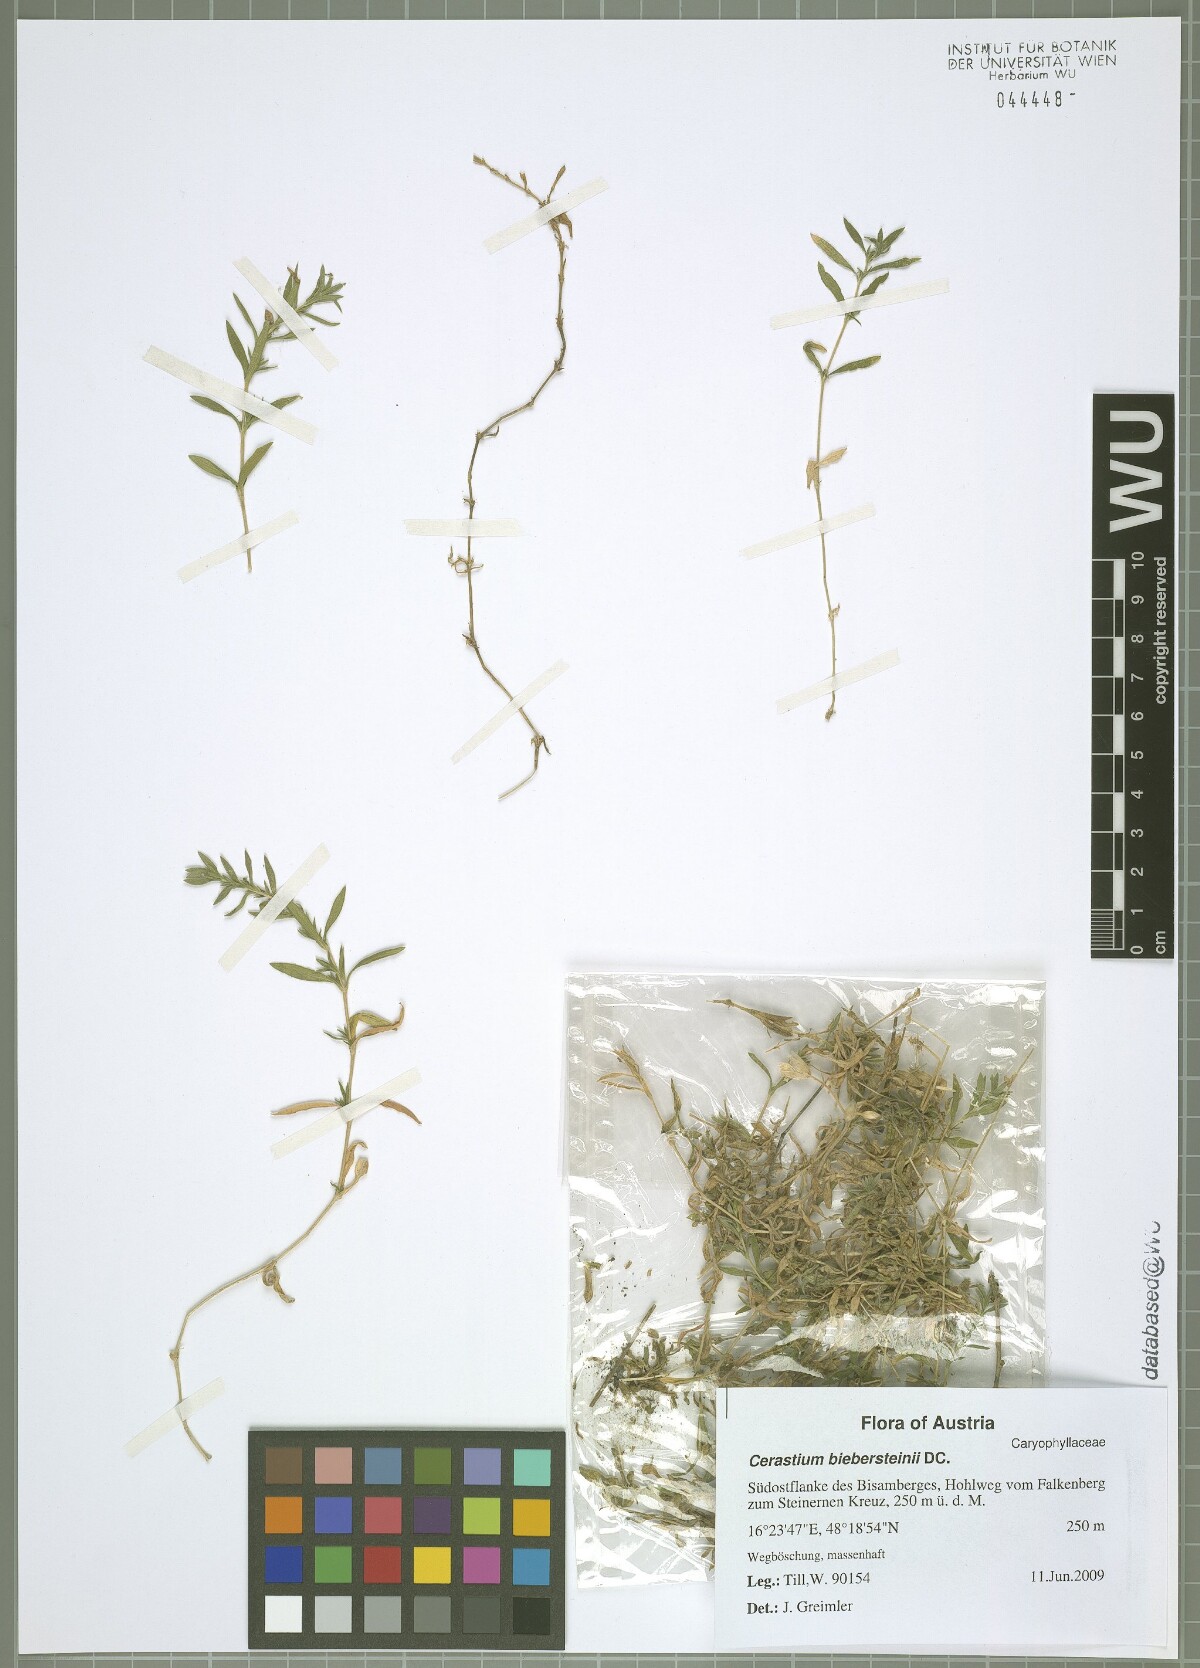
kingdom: Plantae
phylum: Tracheophyta
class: Magnoliopsida
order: Caryophyllales
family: Caryophyllaceae
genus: Cerastium
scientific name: Cerastium biebersteinii
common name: Snow-in-summer
